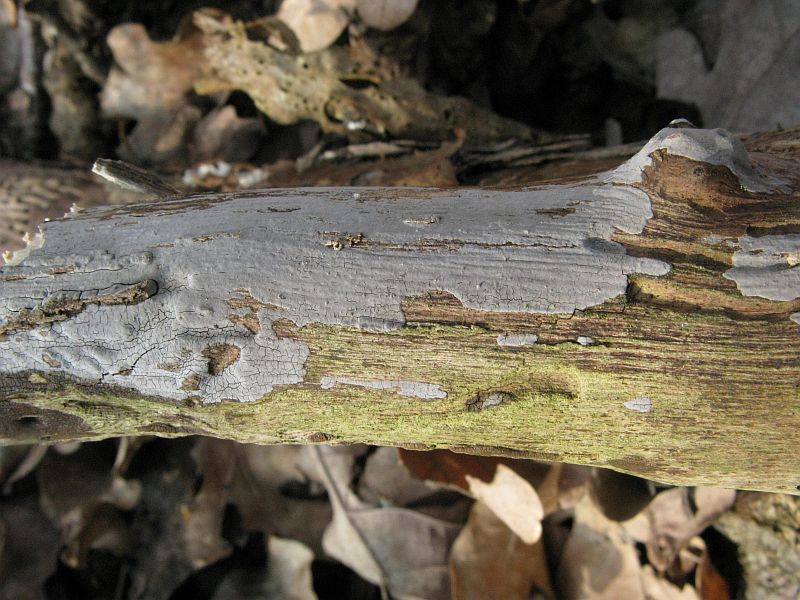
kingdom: Fungi
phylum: Basidiomycota
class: Agaricomycetes
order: Russulales
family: Peniophoraceae
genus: Peniophora
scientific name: Peniophora lycii
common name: grynet voksskind
